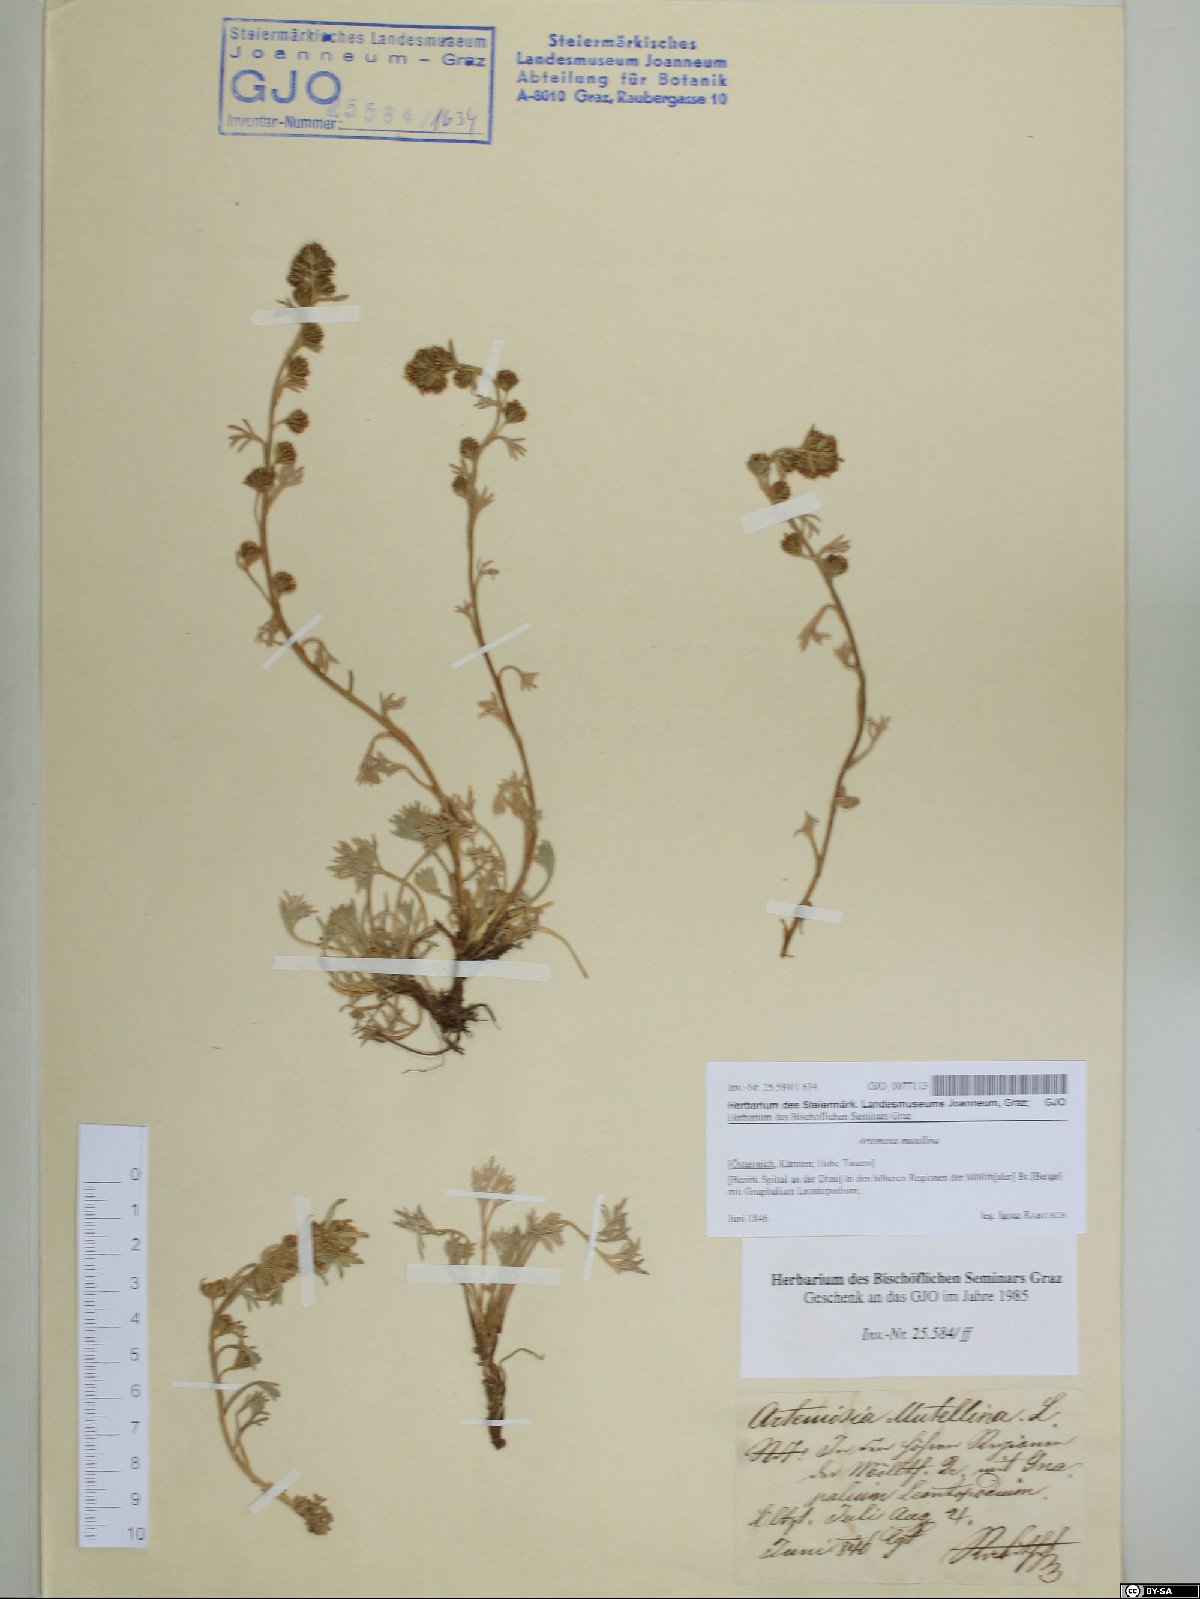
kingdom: Plantae
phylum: Tracheophyta
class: Magnoliopsida
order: Asterales
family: Asteraceae
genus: Artemisia
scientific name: Artemisia mutellina
